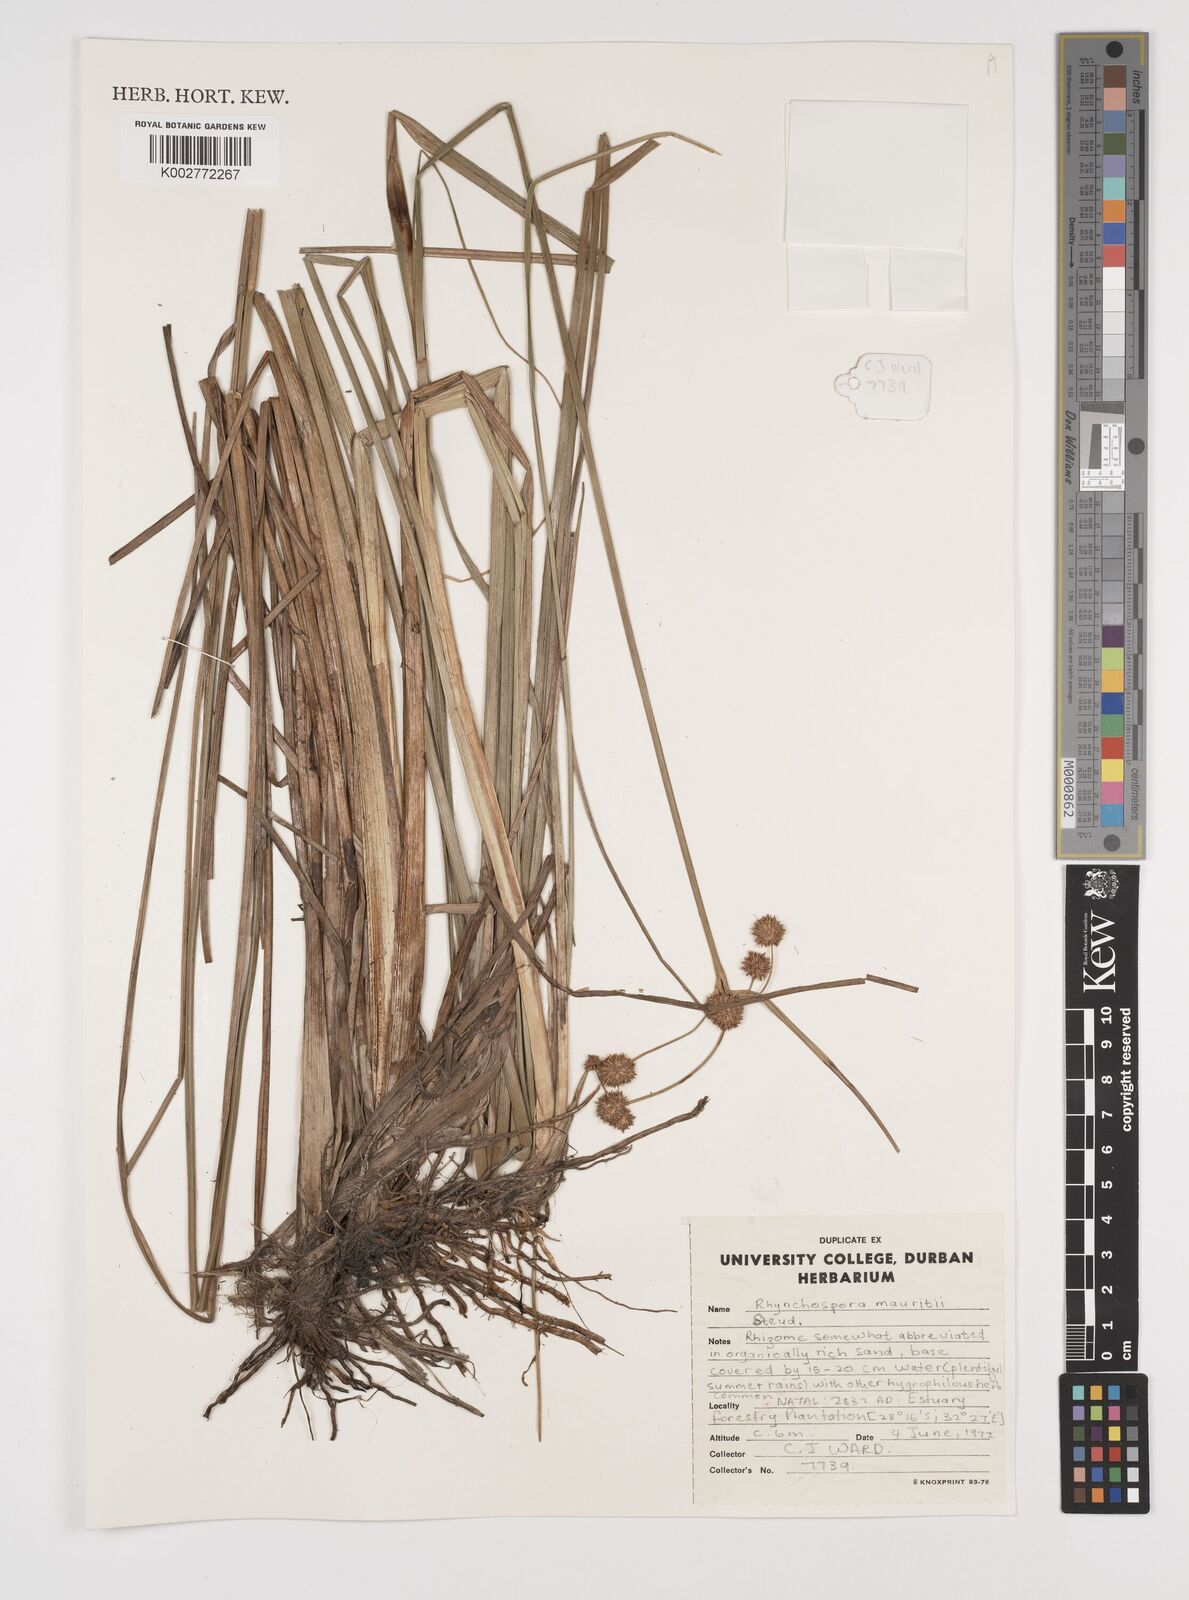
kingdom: Plantae
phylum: Tracheophyta
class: Liliopsida
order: Poales
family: Cyperaceae
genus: Rhynchospora
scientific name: Rhynchospora holoschoenoides
